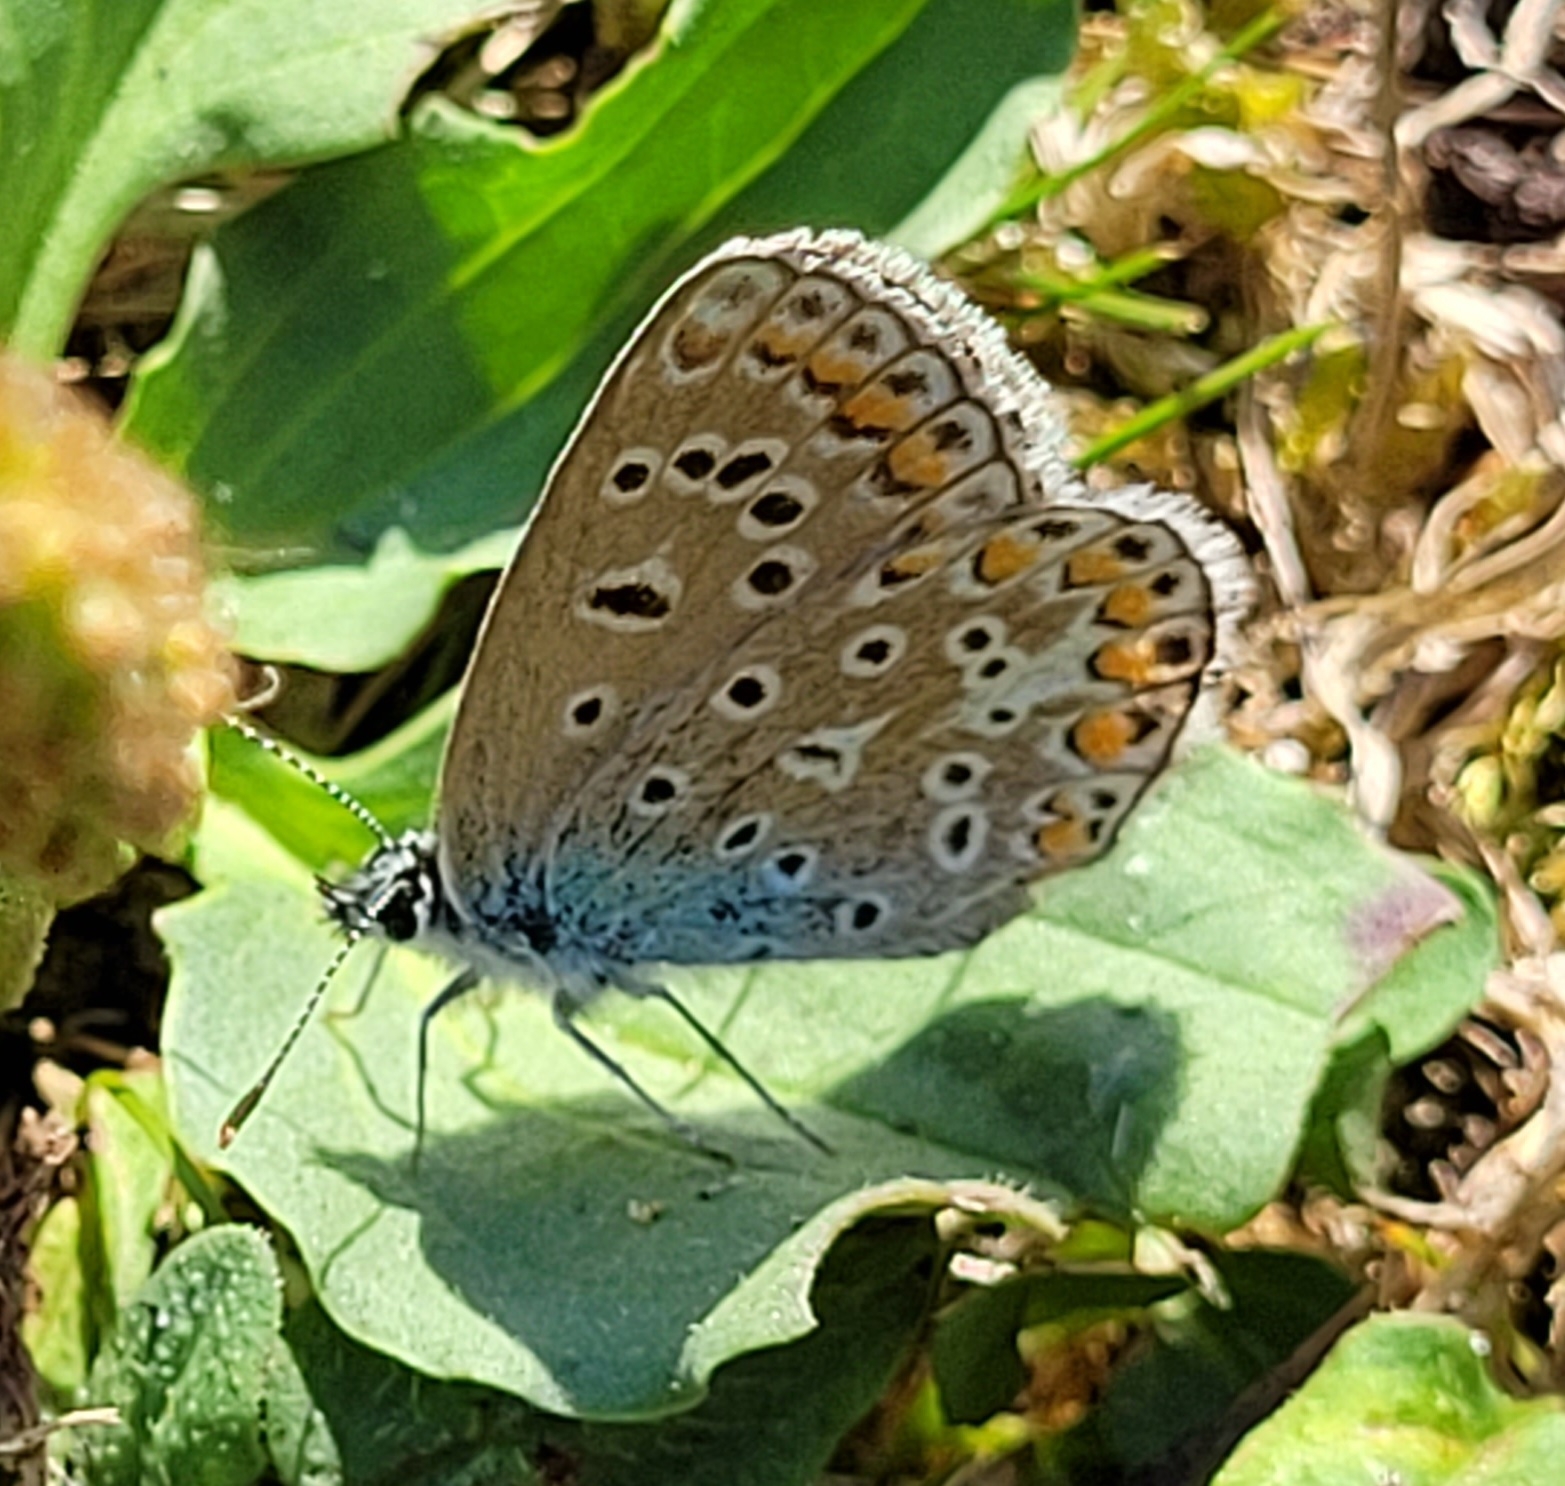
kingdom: Animalia
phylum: Arthropoda
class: Insecta
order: Lepidoptera
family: Lycaenidae
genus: Polyommatus
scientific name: Polyommatus icarus
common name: Almindelig blåfugl
